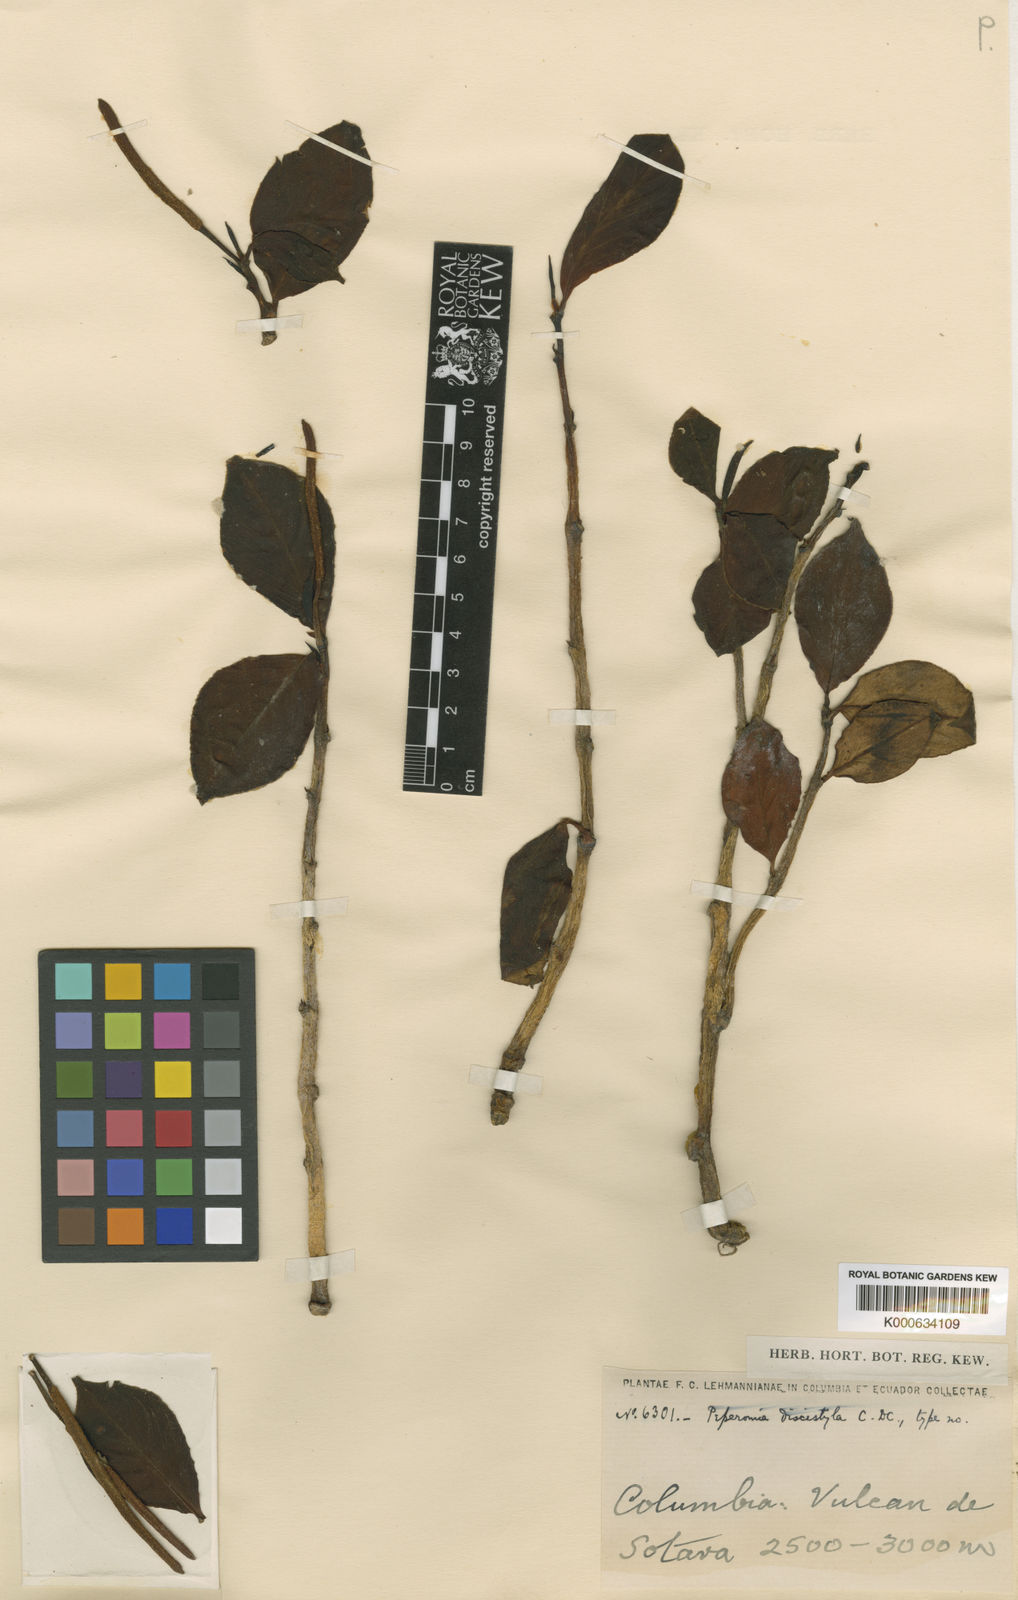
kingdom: Plantae
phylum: Tracheophyta
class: Magnoliopsida
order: Piperales
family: Piperaceae
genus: Peperomia
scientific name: Peperomia trianae
